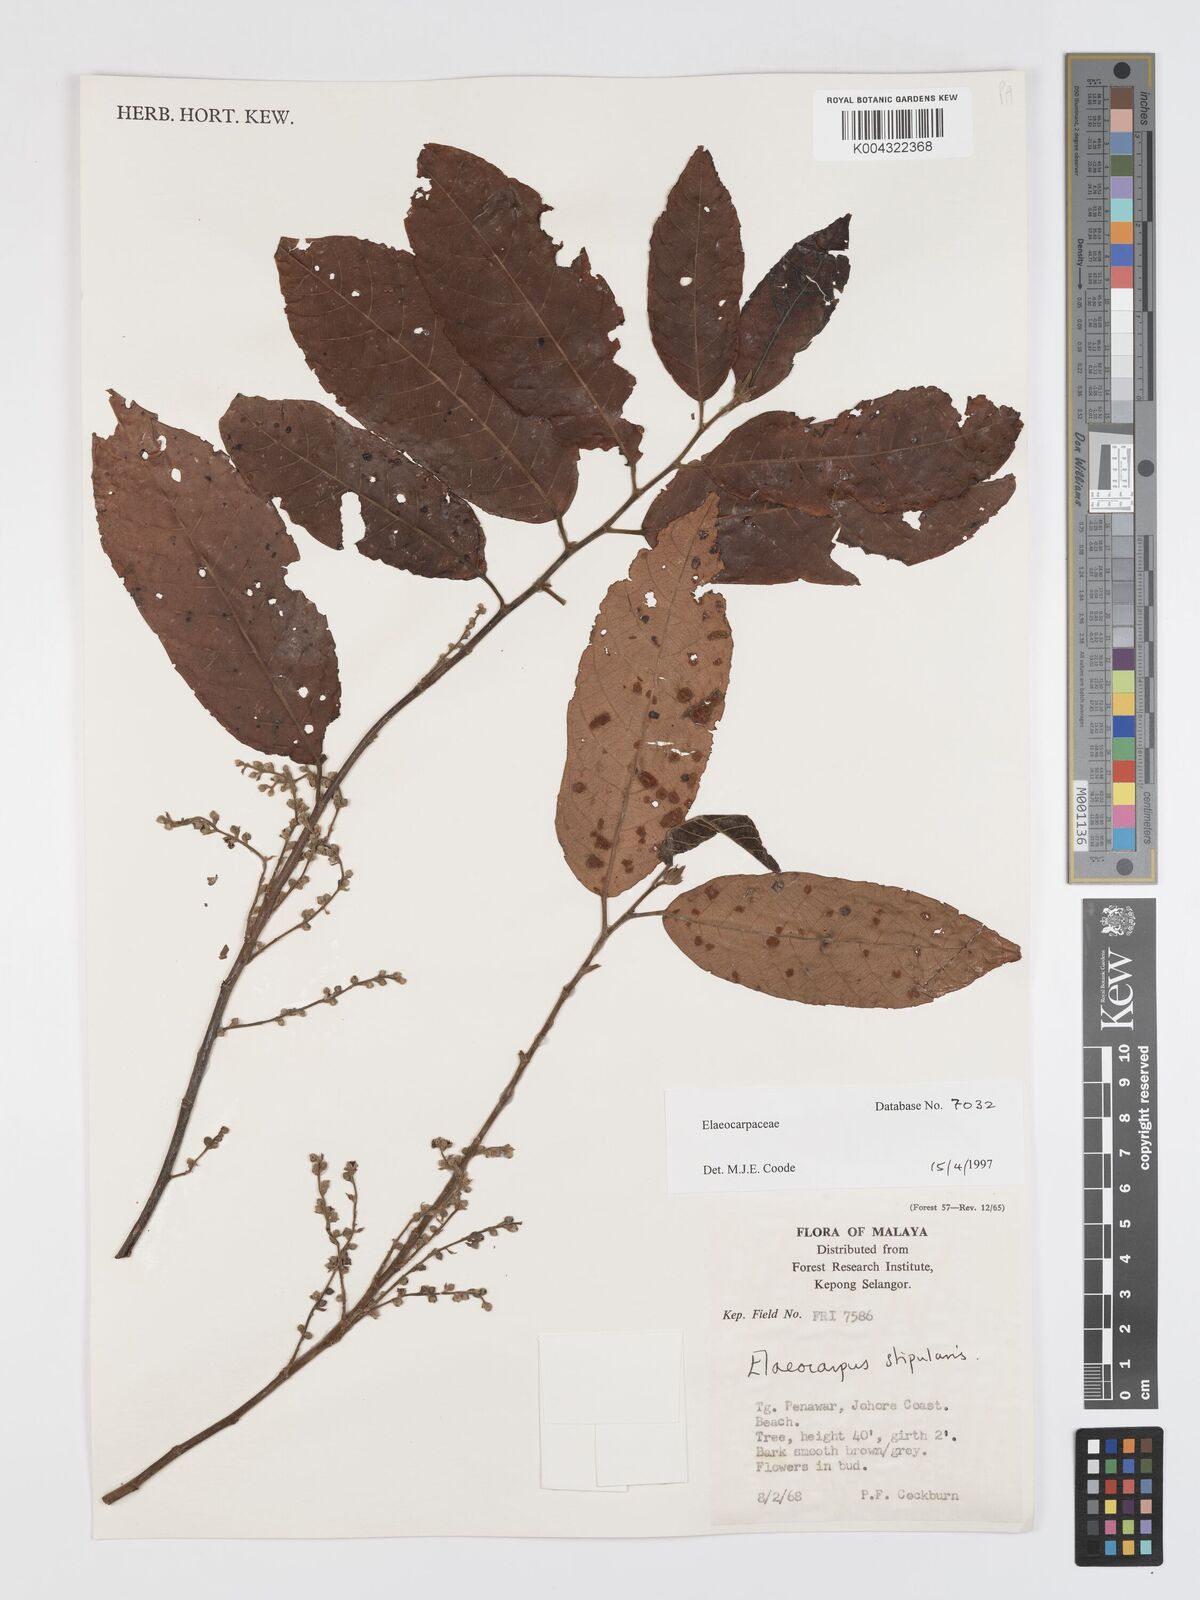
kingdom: Plantae
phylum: Tracheophyta
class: Magnoliopsida
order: Oxalidales
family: Elaeocarpaceae
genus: Elaeocarpus
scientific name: Elaeocarpus stipularis
